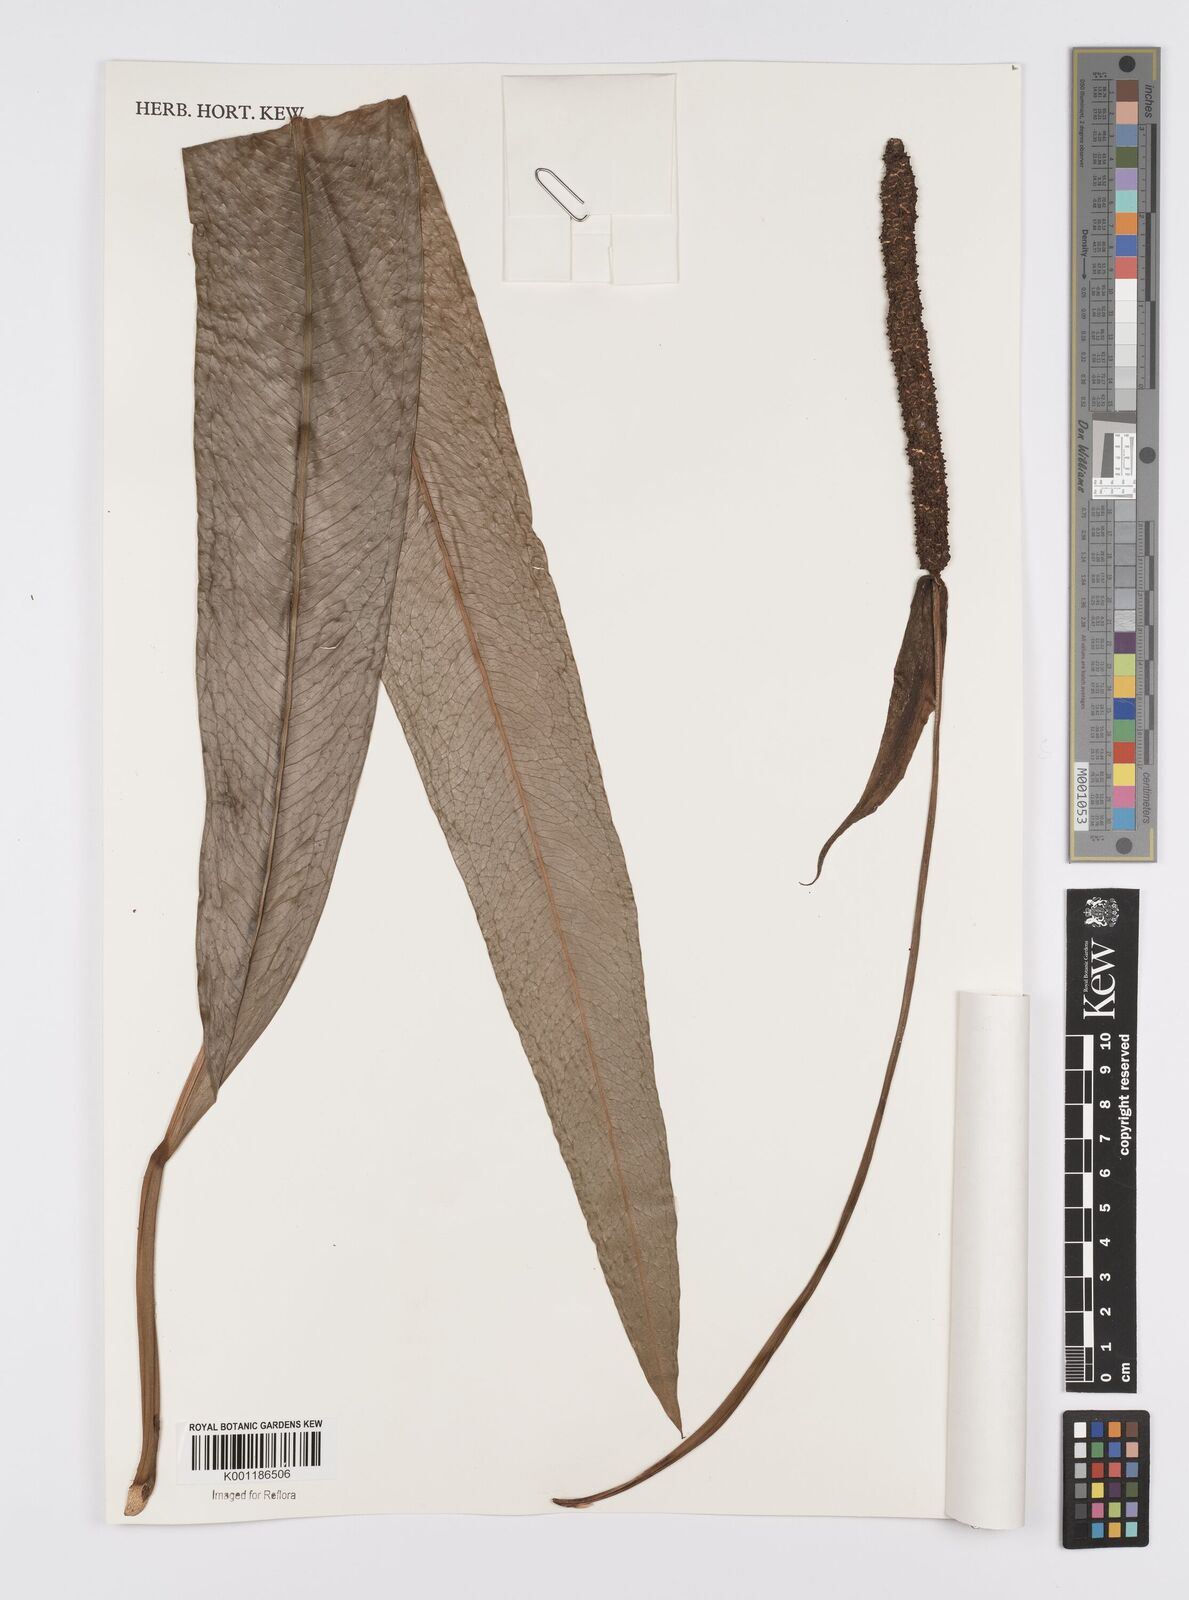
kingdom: Plantae
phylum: Tracheophyta
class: Liliopsida
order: Alismatales
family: Araceae
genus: Anthurium
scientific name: Anthurium harrisii
